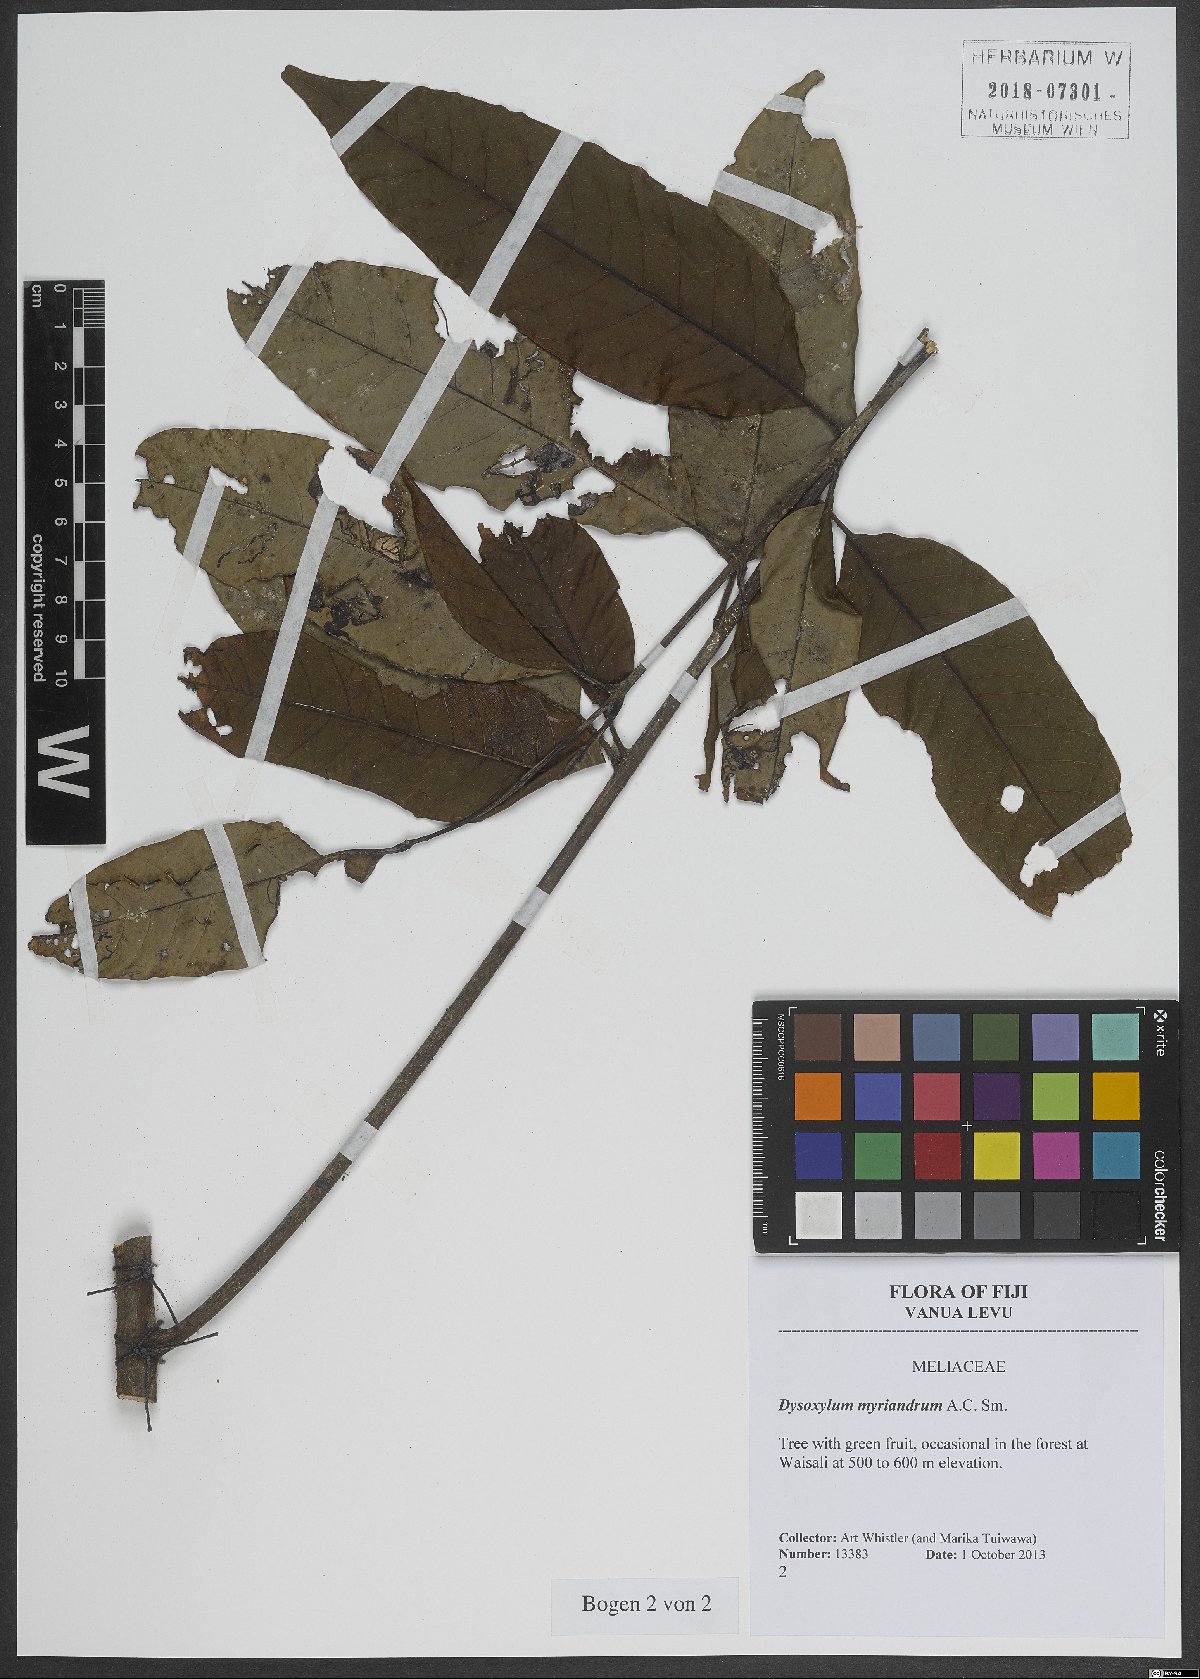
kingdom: Plantae
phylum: Tracheophyta
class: Magnoliopsida
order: Sapindales
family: Meliaceae
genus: Didymocheton
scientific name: Didymocheton myriandrus
